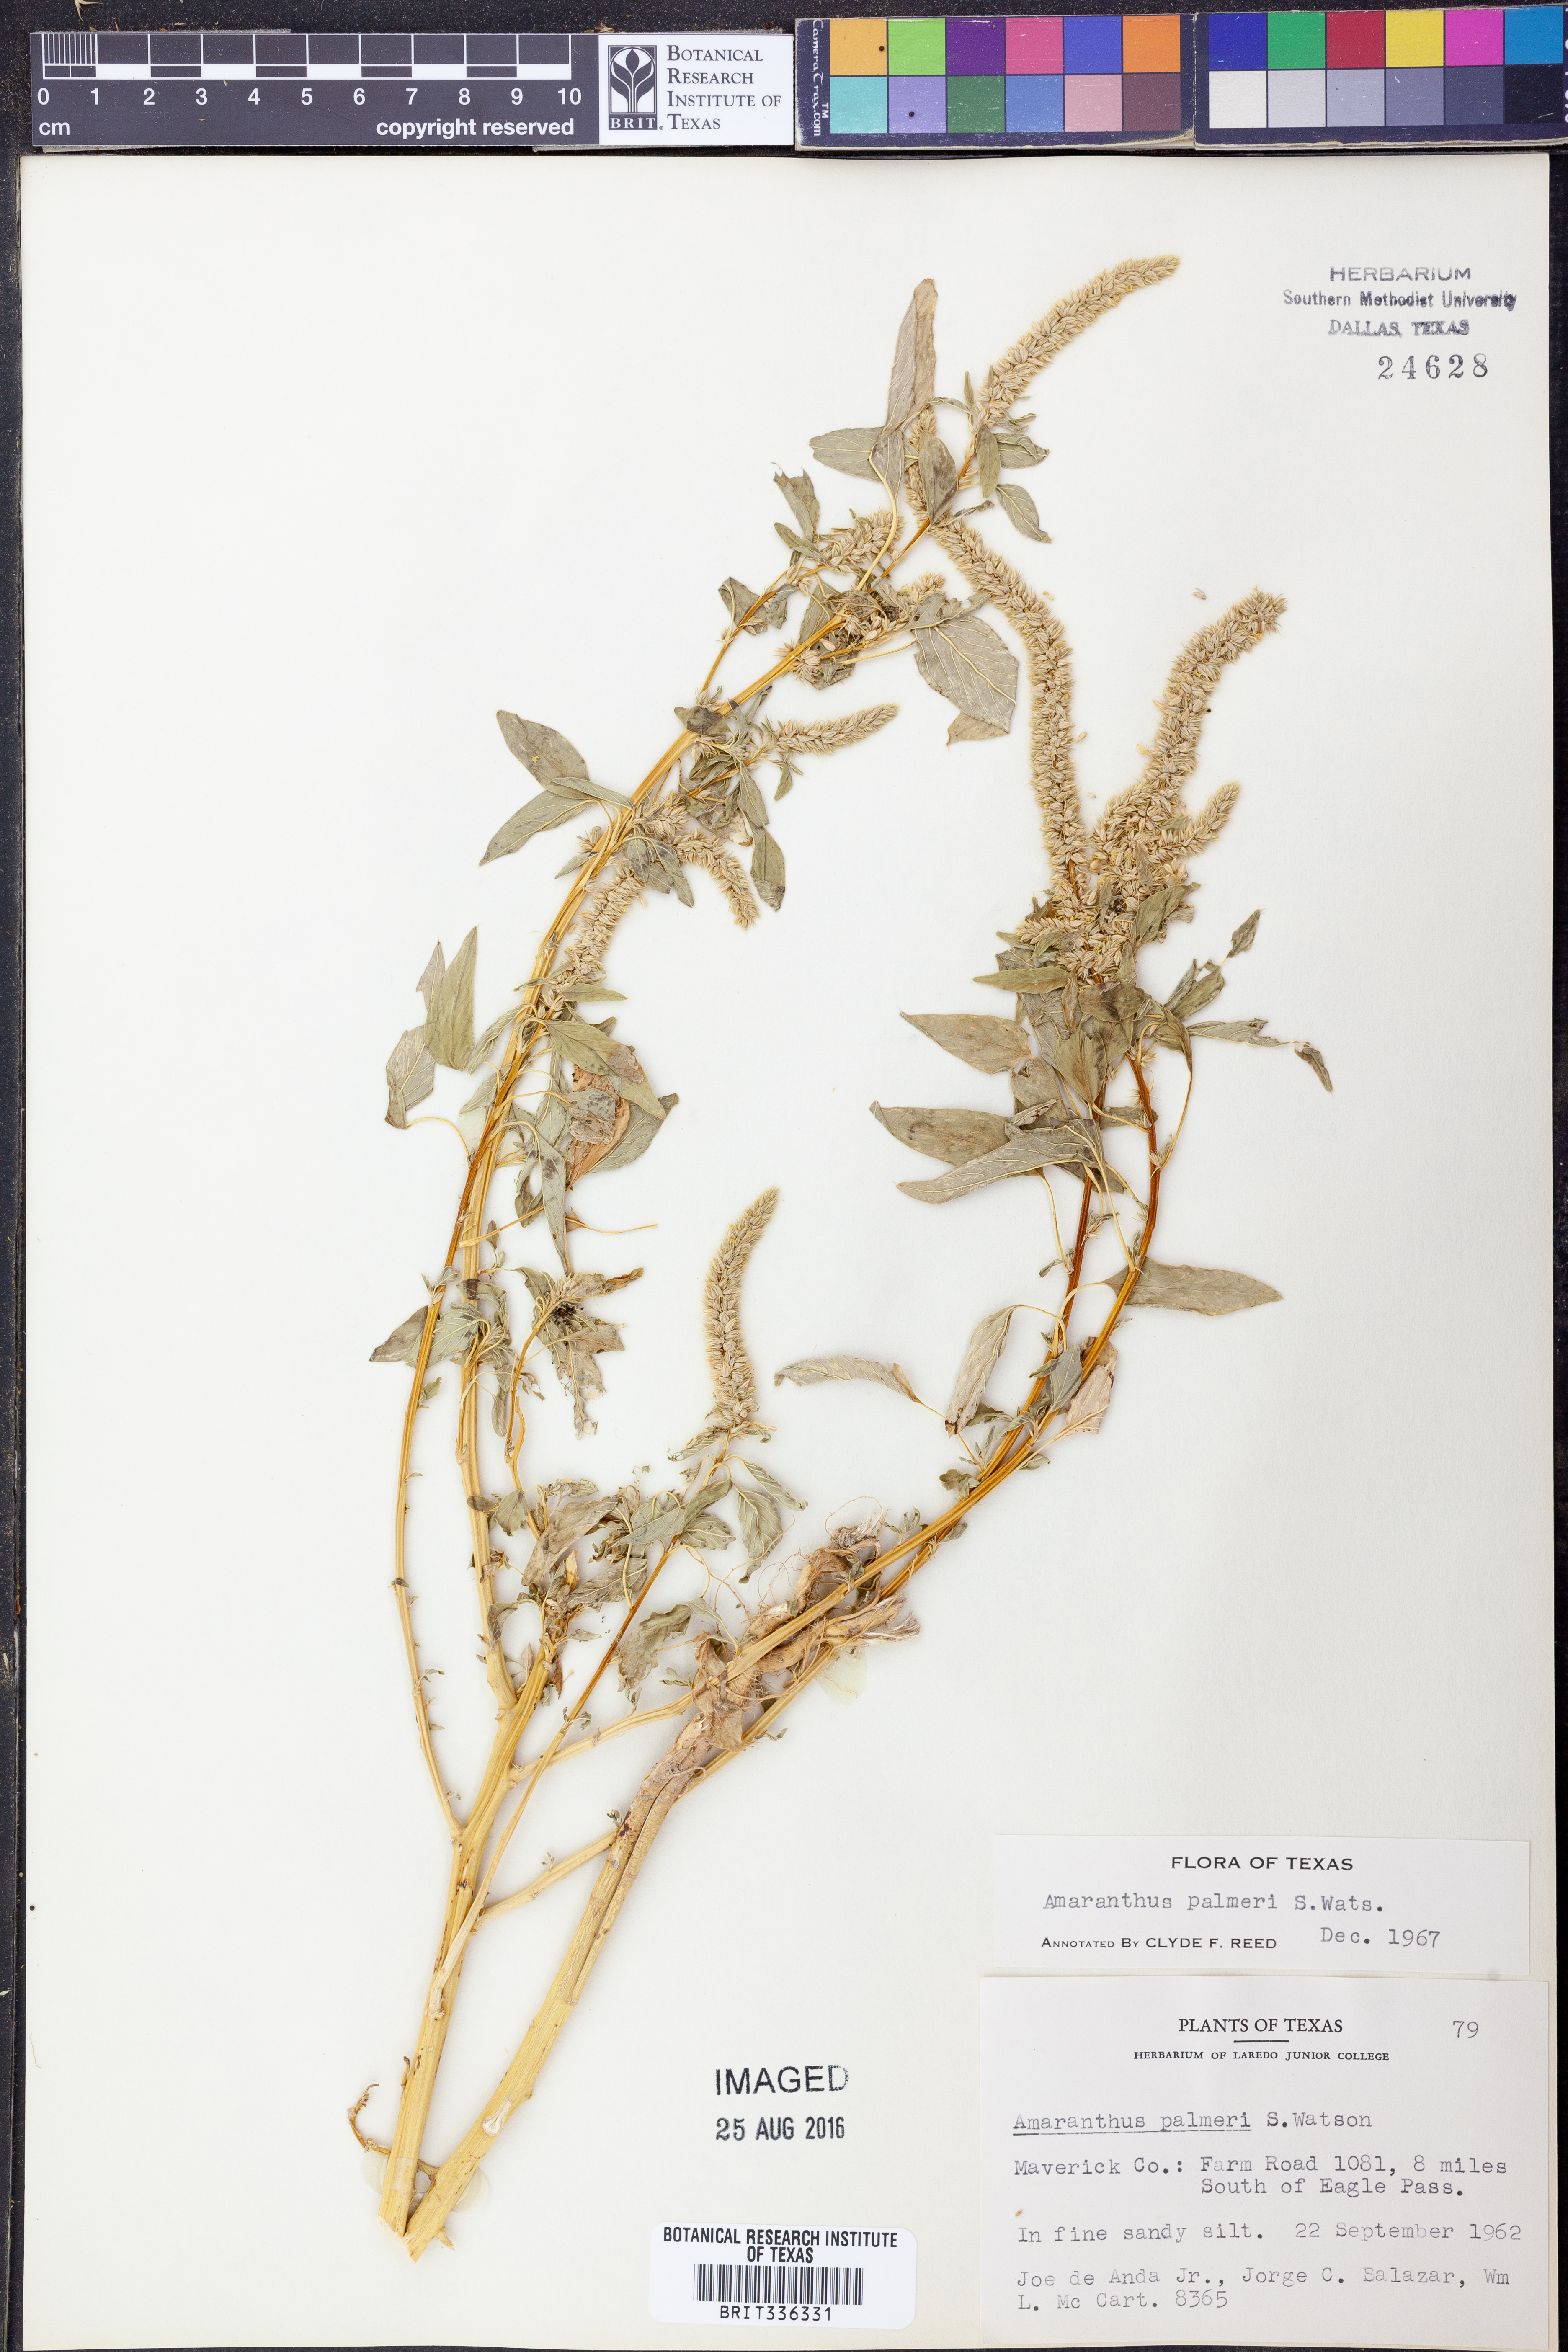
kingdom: Plantae
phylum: Tracheophyta
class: Magnoliopsida
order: Caryophyllales
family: Amaranthaceae
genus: Amaranthus
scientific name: Amaranthus palmeri
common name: Dioecious amaranth
